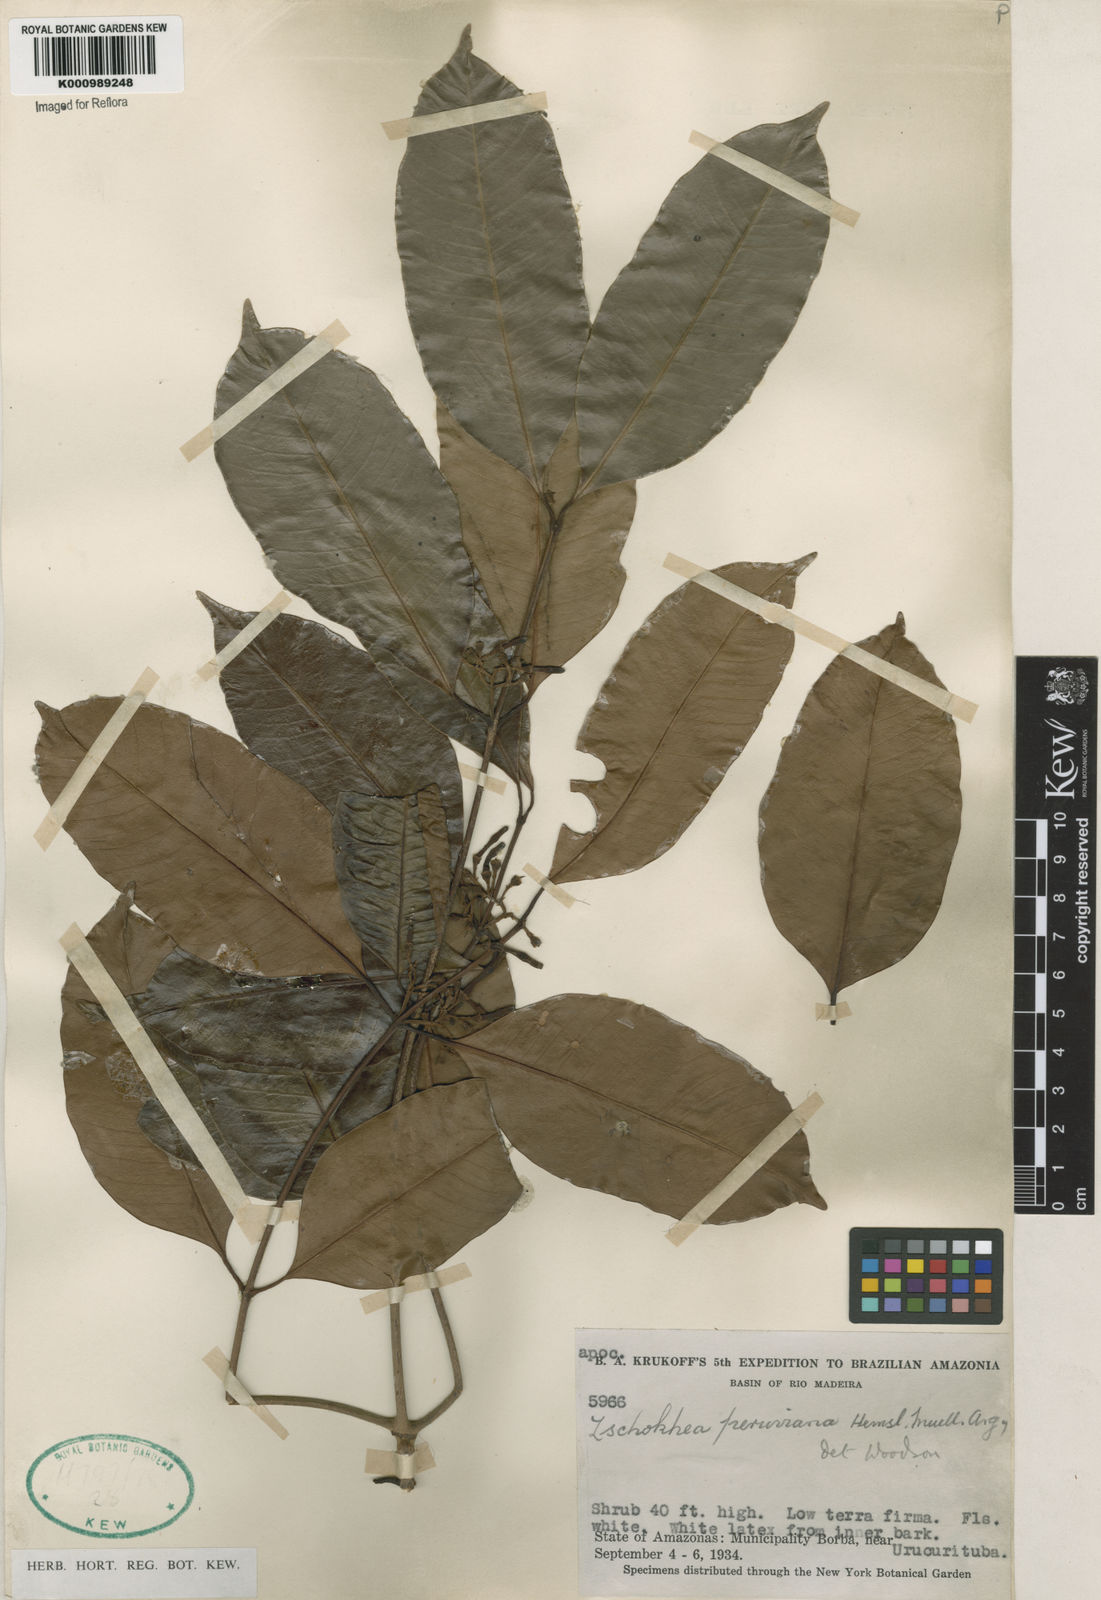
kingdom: Plantae
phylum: Tracheophyta
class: Magnoliopsida
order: Gentianales
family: Apocynaceae
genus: Lacmellea
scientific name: Lacmellea
